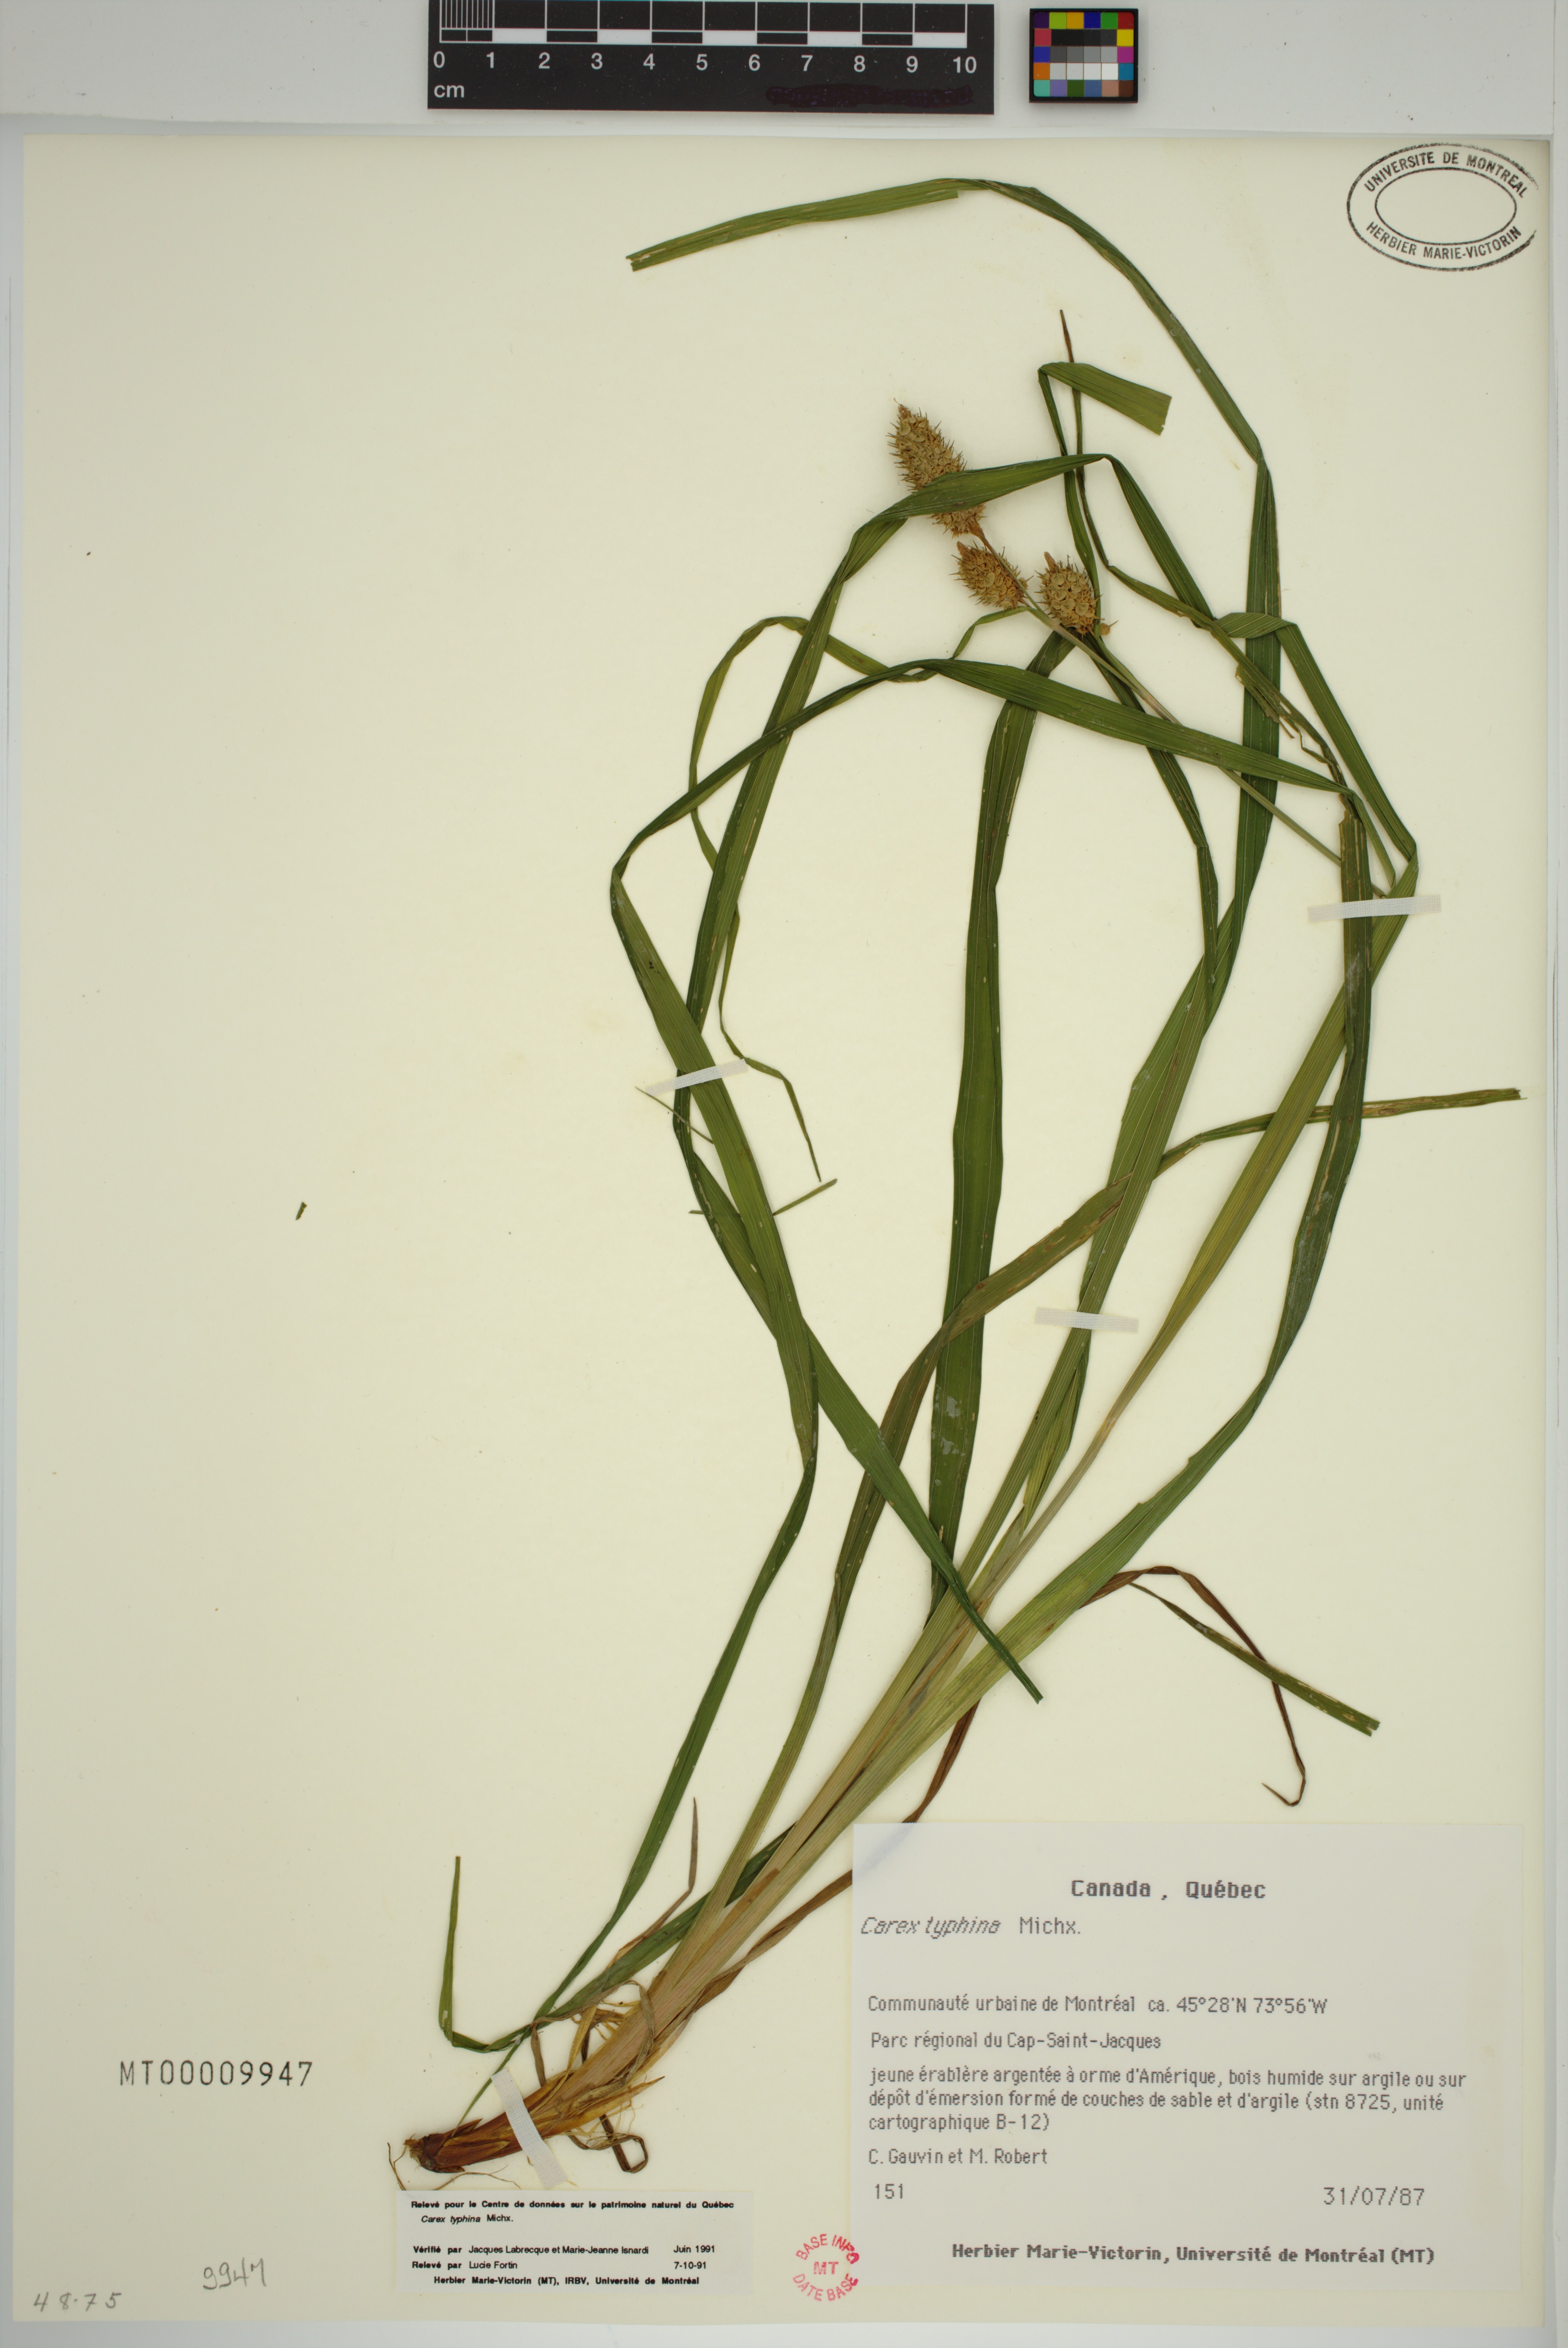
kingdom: Plantae
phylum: Tracheophyta
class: Liliopsida
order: Poales
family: Cyperaceae
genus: Carex
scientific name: Carex typhina
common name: Cattail sedge
